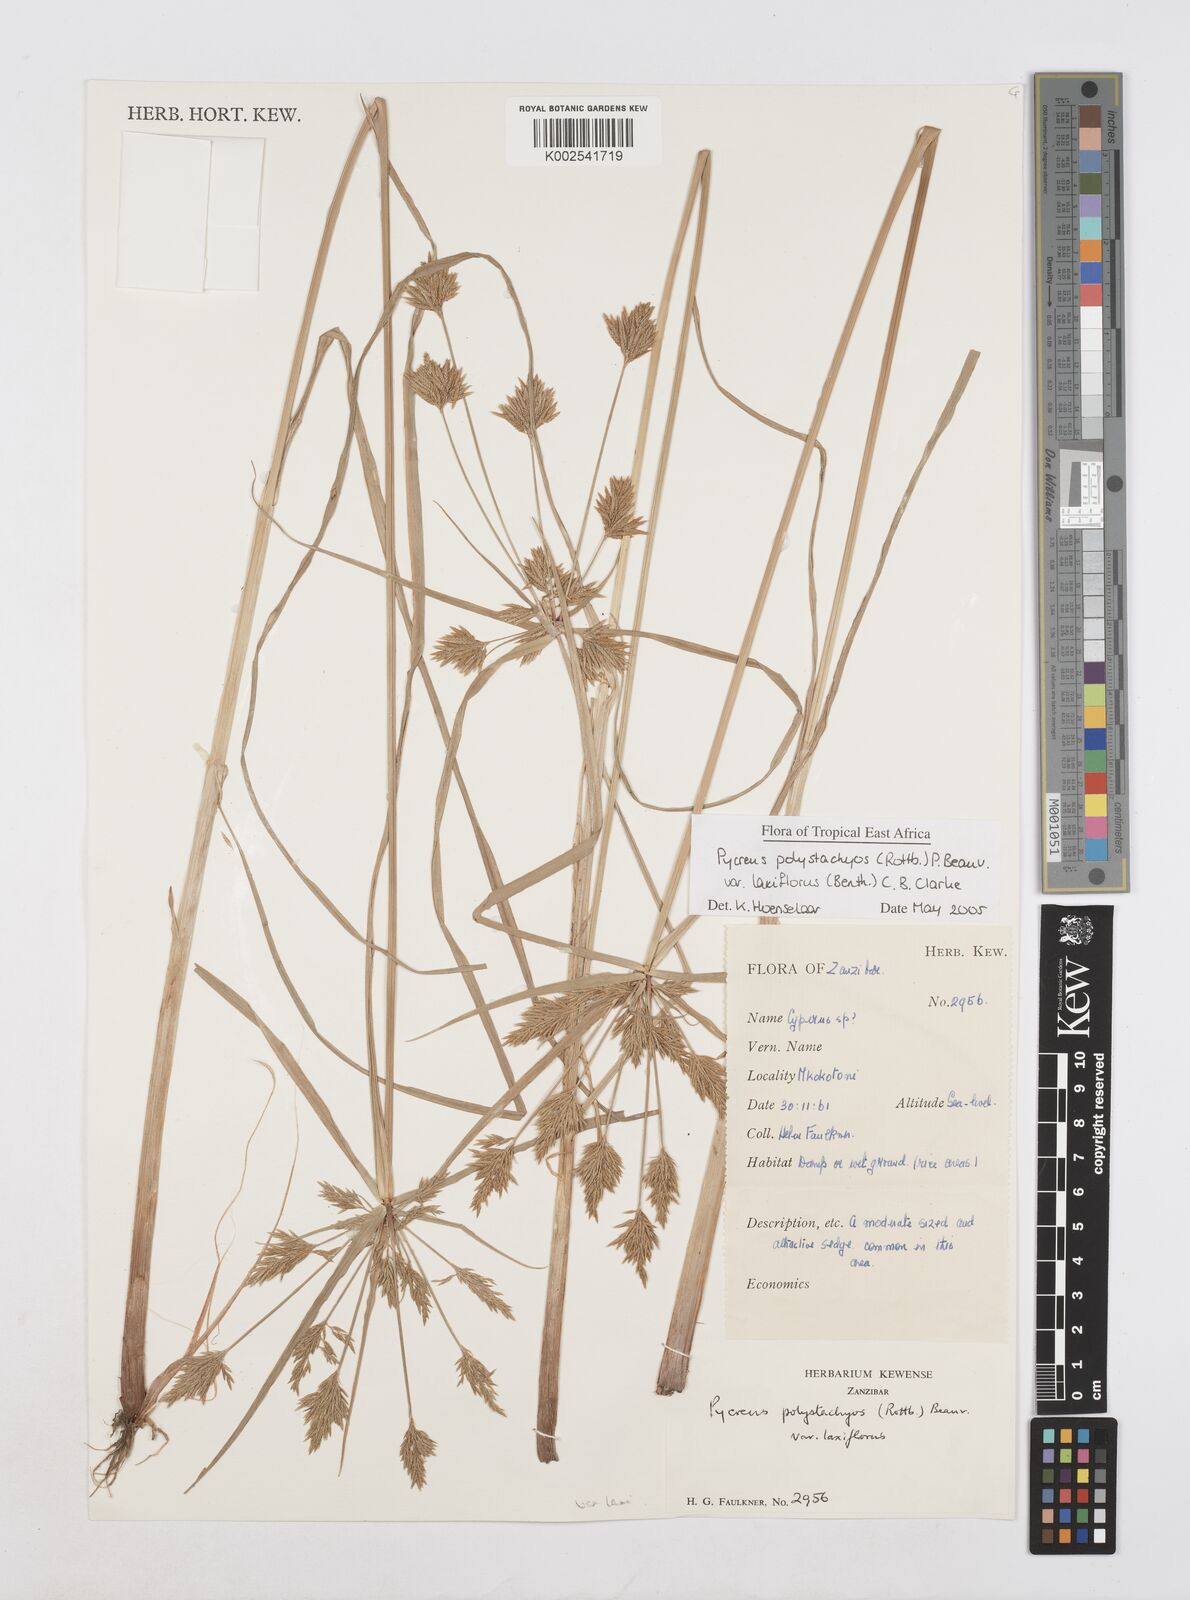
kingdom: Plantae
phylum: Tracheophyta
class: Liliopsida
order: Poales
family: Cyperaceae
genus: Cyperus
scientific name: Cyperus polystachyos
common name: Bunchy flat sedge
